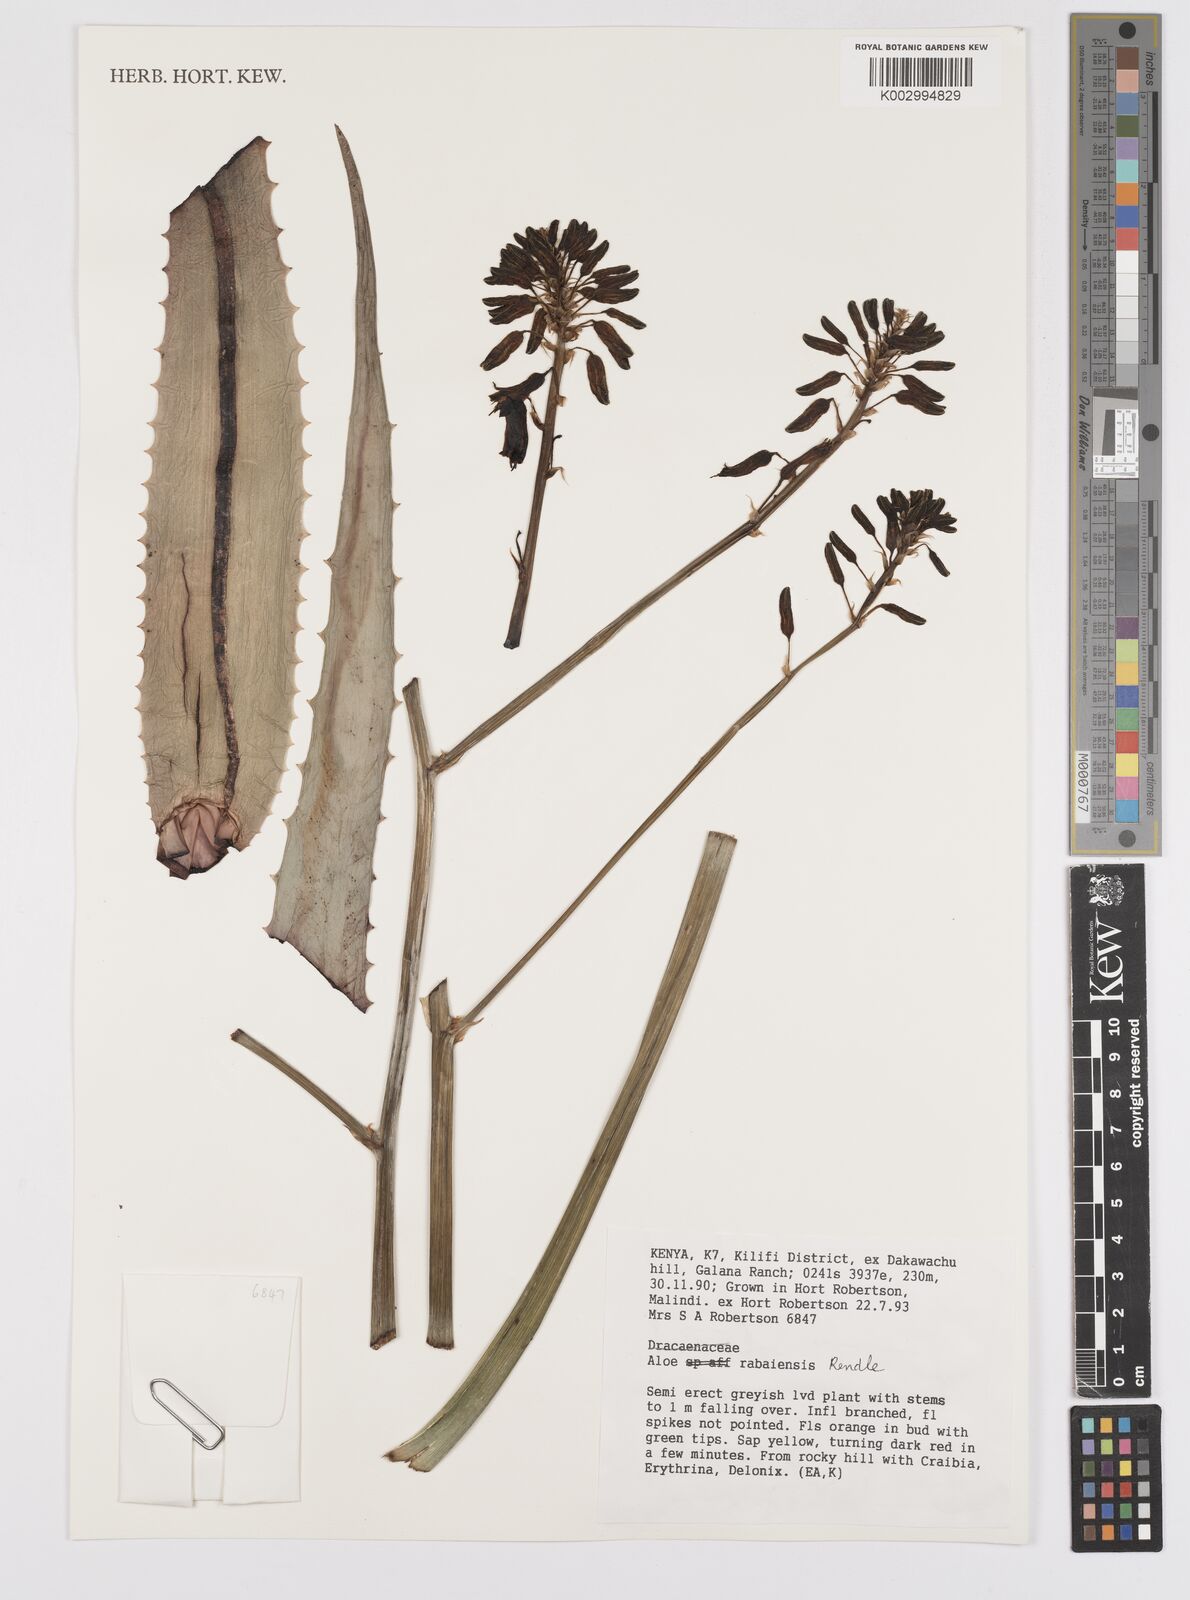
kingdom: Plantae
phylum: Tracheophyta
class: Liliopsida
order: Asparagales
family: Asphodelaceae
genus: Aloe
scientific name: Aloe rabaiensis
